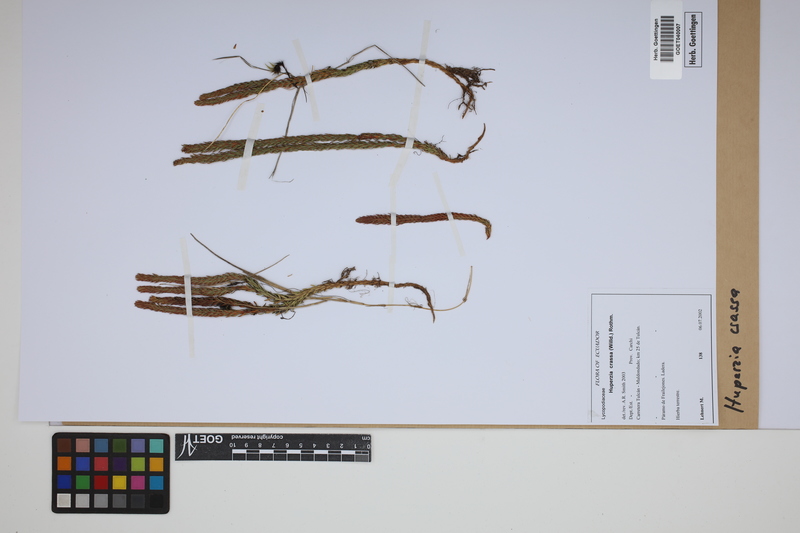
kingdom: Plantae
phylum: Tracheophyta
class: Lycopodiopsida
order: Lycopodiales
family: Lycopodiaceae
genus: Phlegmariurus
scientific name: Phlegmariurus crassus
